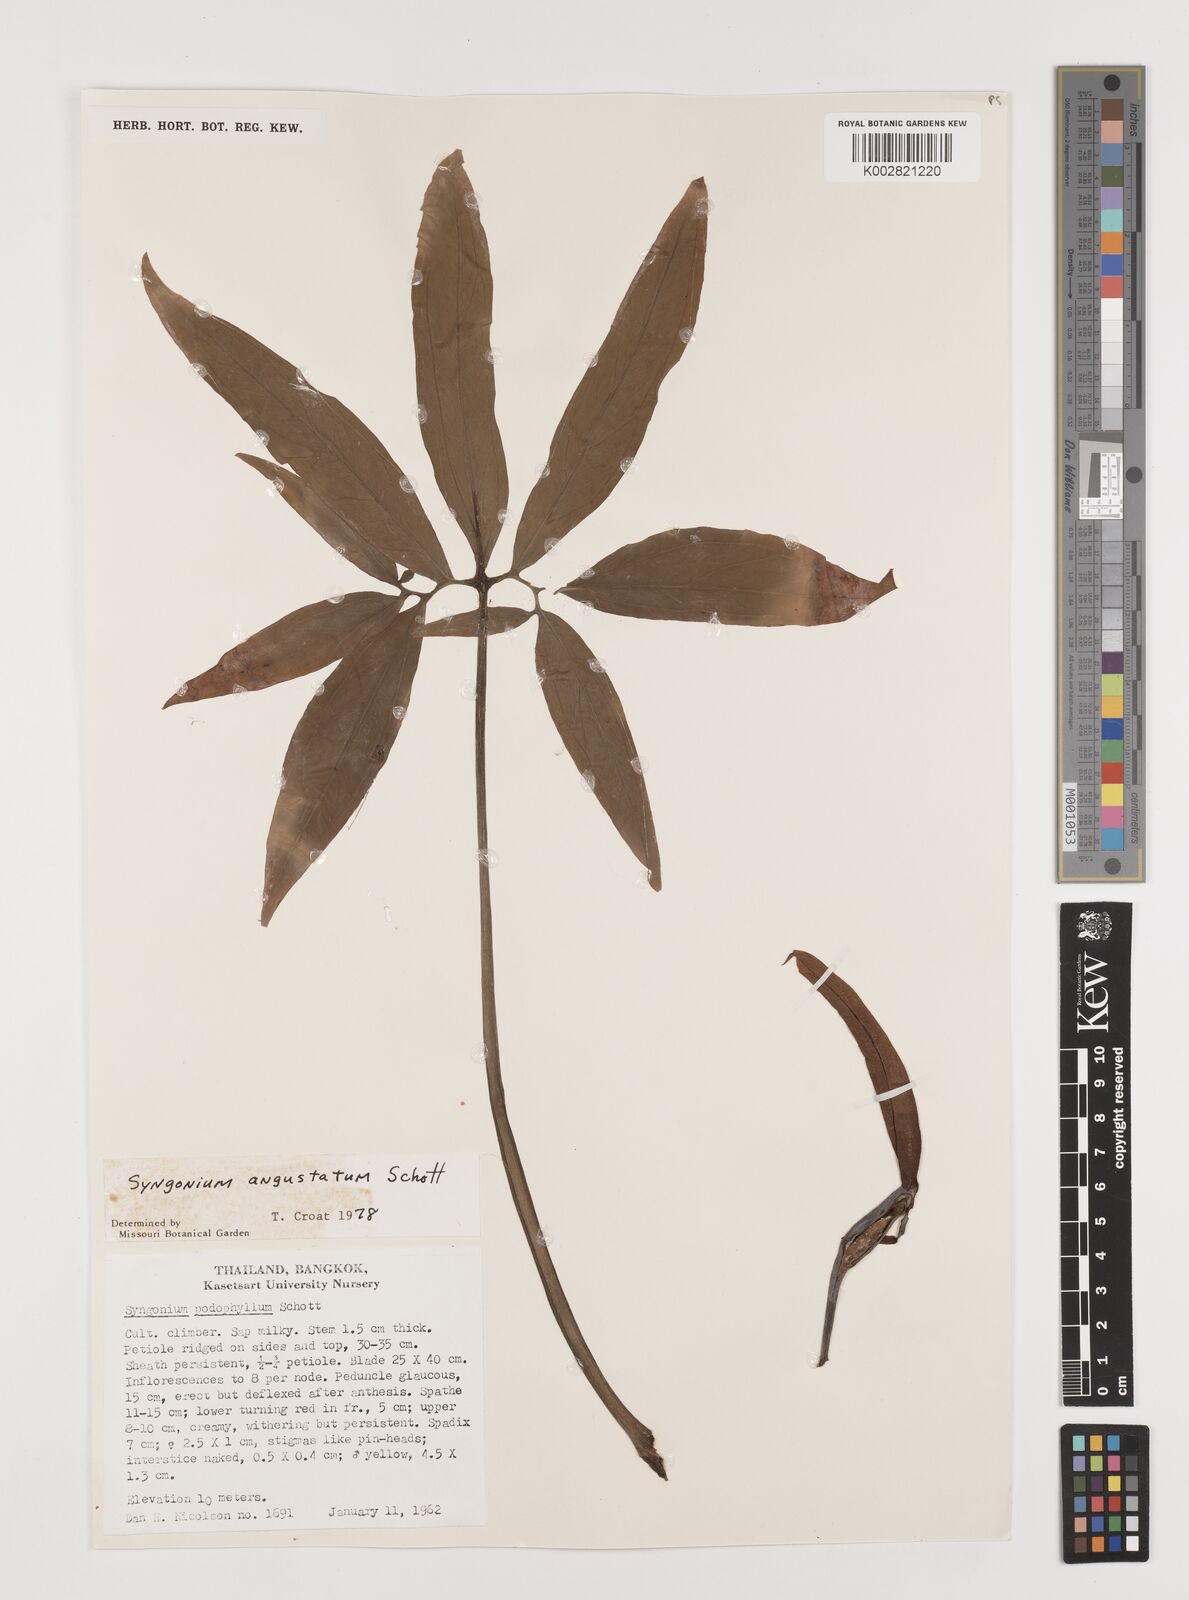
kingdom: Plantae
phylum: Tracheophyta
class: Liliopsida
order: Alismatales
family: Araceae
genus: Syngonium
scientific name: Syngonium angustatum
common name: Fivefingers
